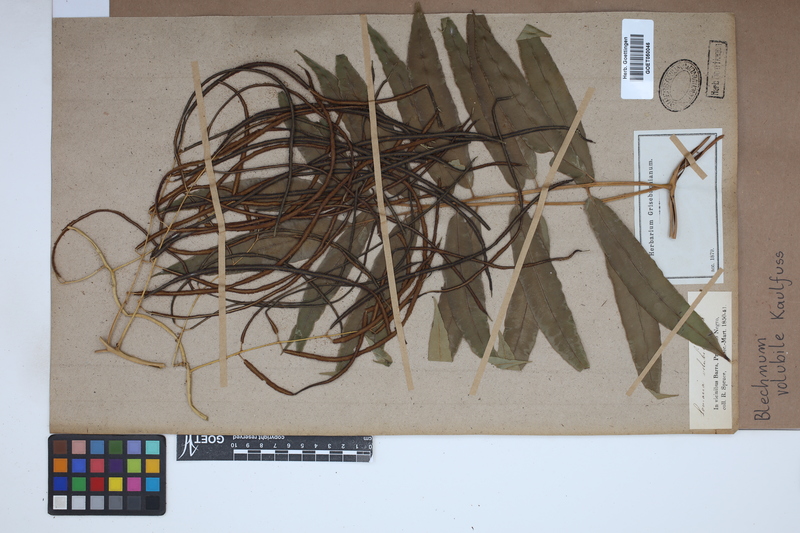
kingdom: Plantae
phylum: Tracheophyta
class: Polypodiopsida
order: Polypodiales
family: Blechnaceae
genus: Salpichlaena
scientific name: Salpichlaena volubilis
